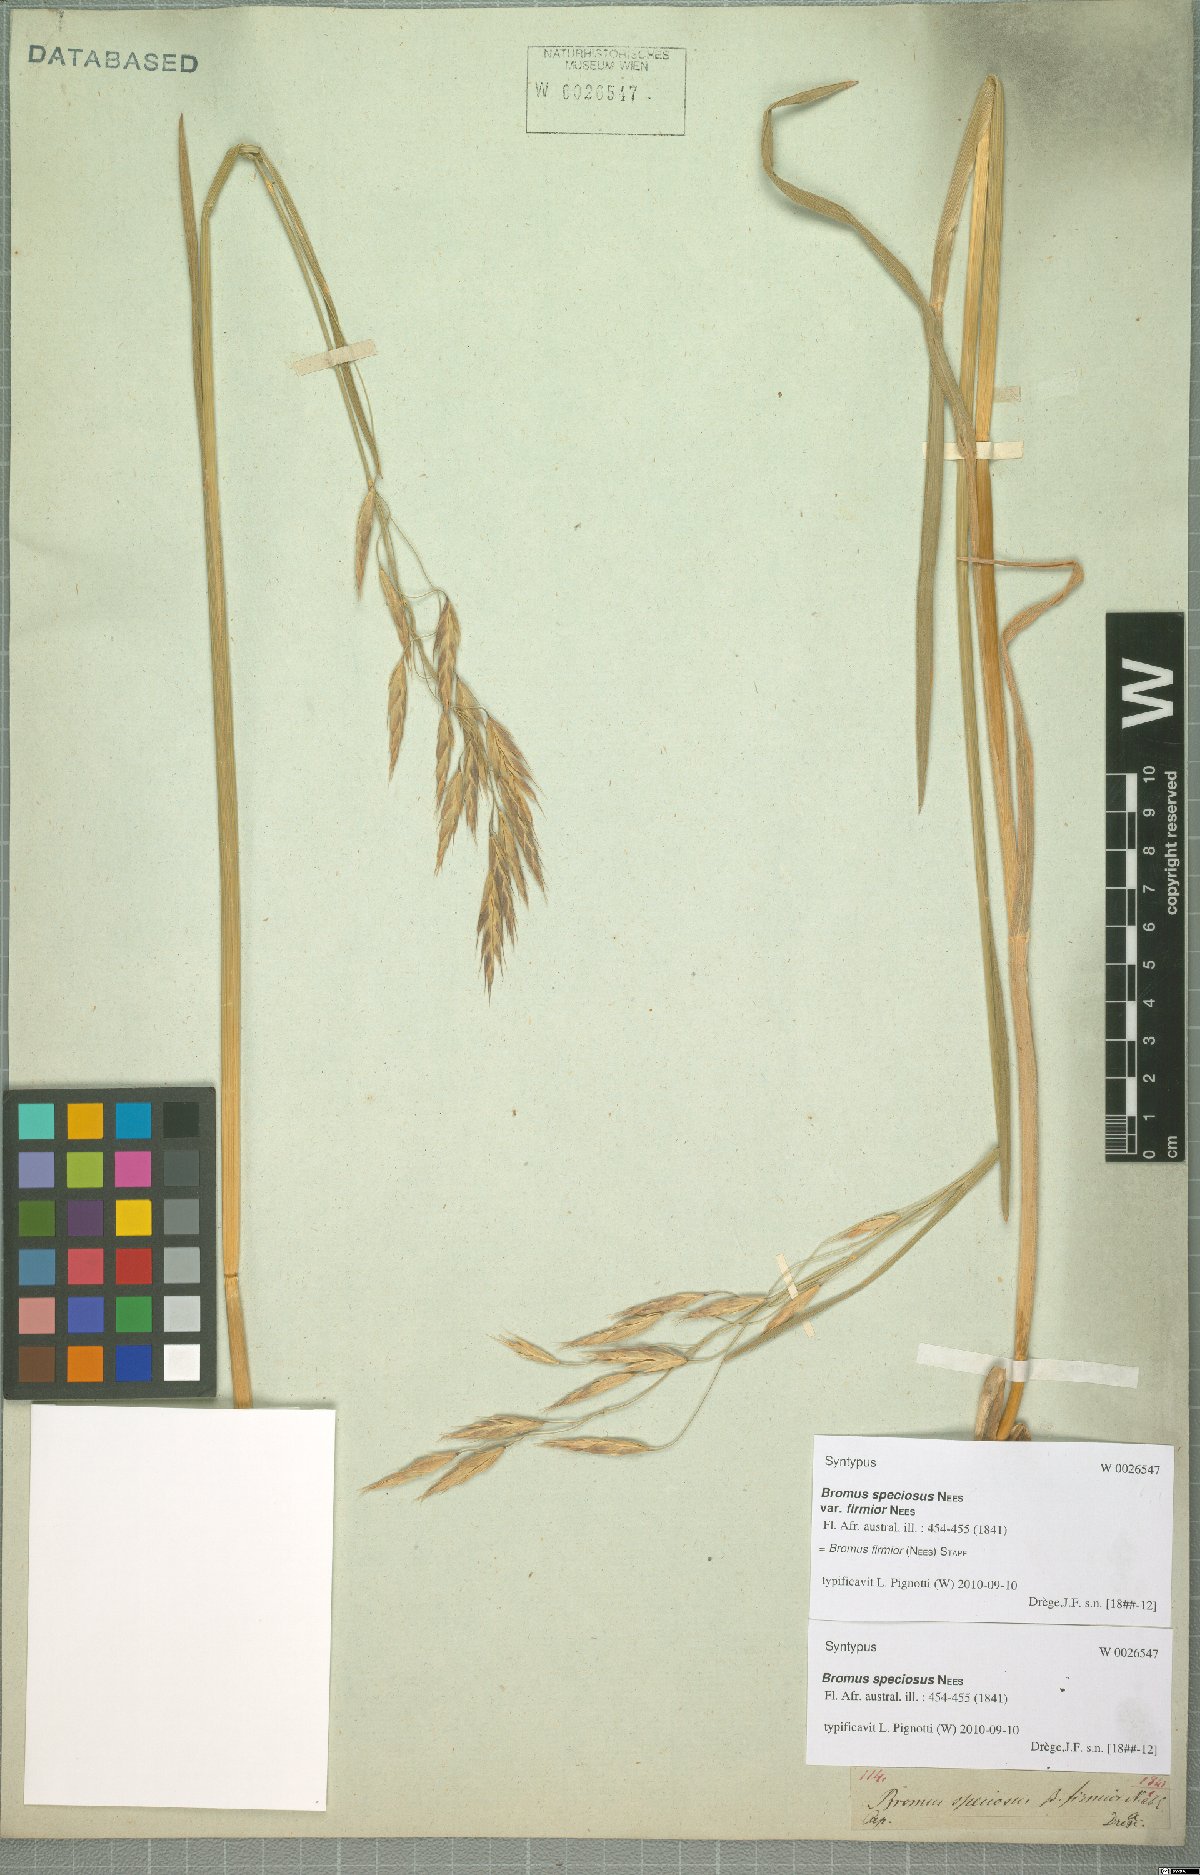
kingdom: Plantae
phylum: Tracheophyta
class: Liliopsida
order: Poales
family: Poaceae
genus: Bromus
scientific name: Bromus firmior
